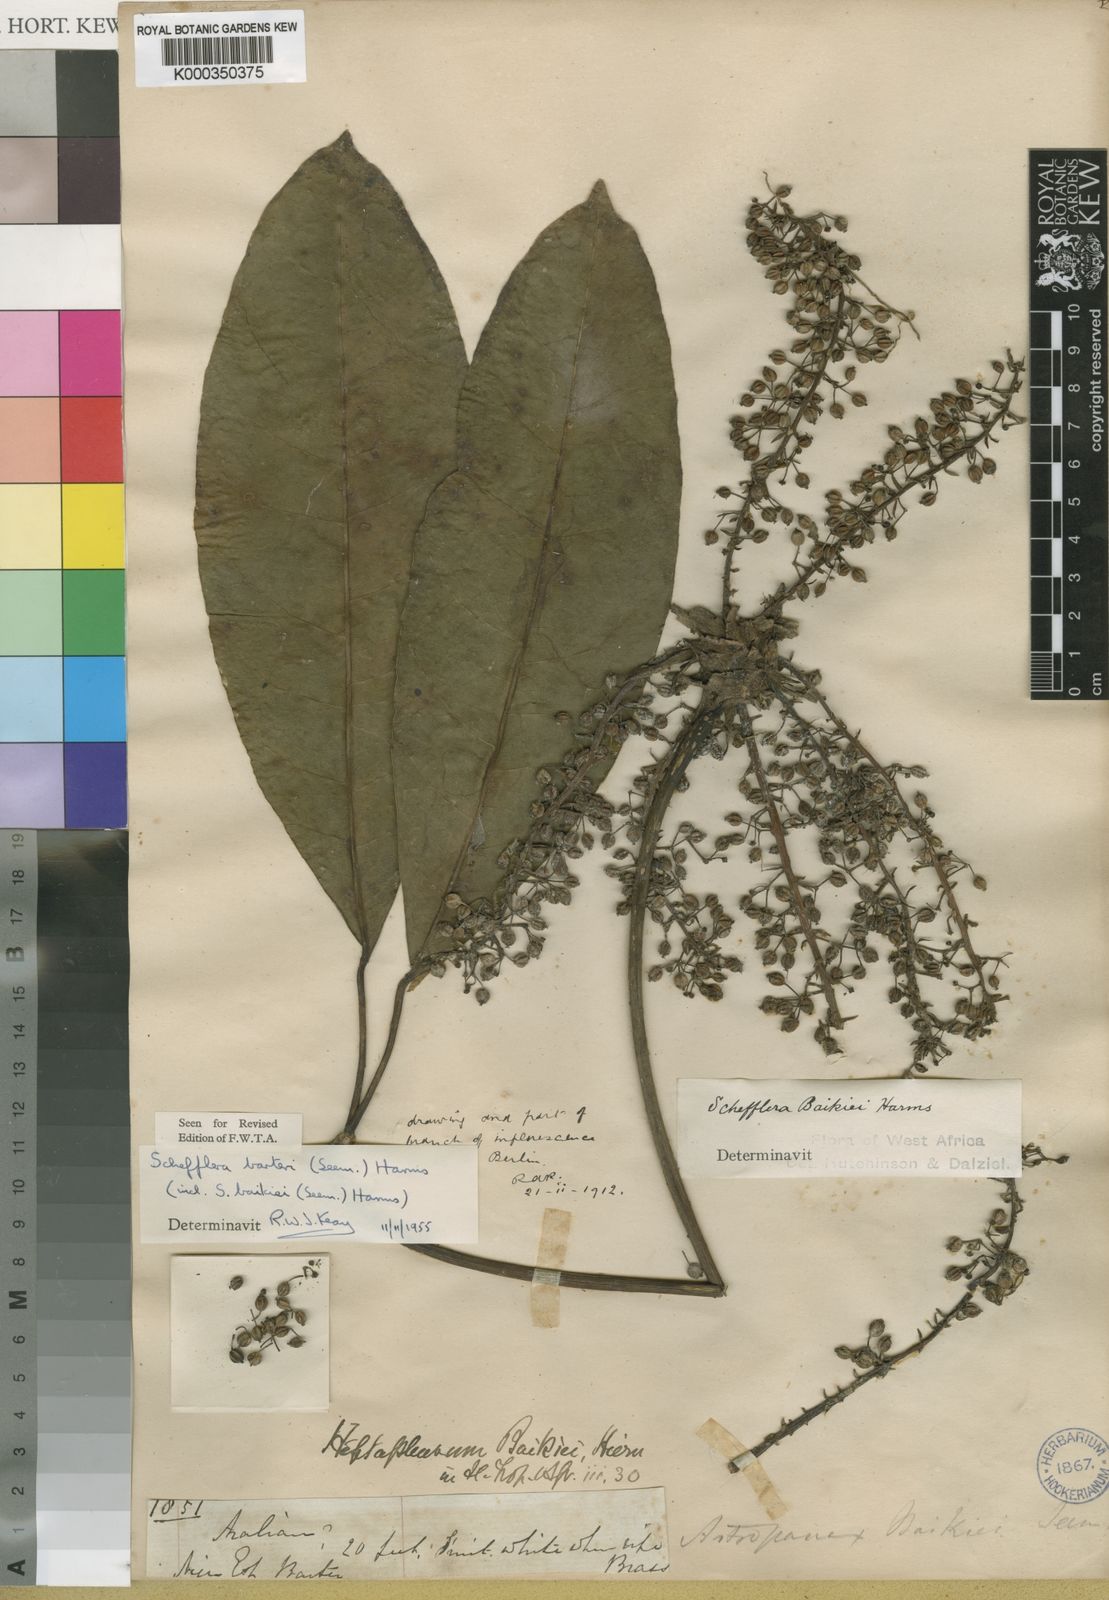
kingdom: Plantae
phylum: Tracheophyta
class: Magnoliopsida
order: Apiales
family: Araliaceae
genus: Astropanax
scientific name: Astropanax barteri
